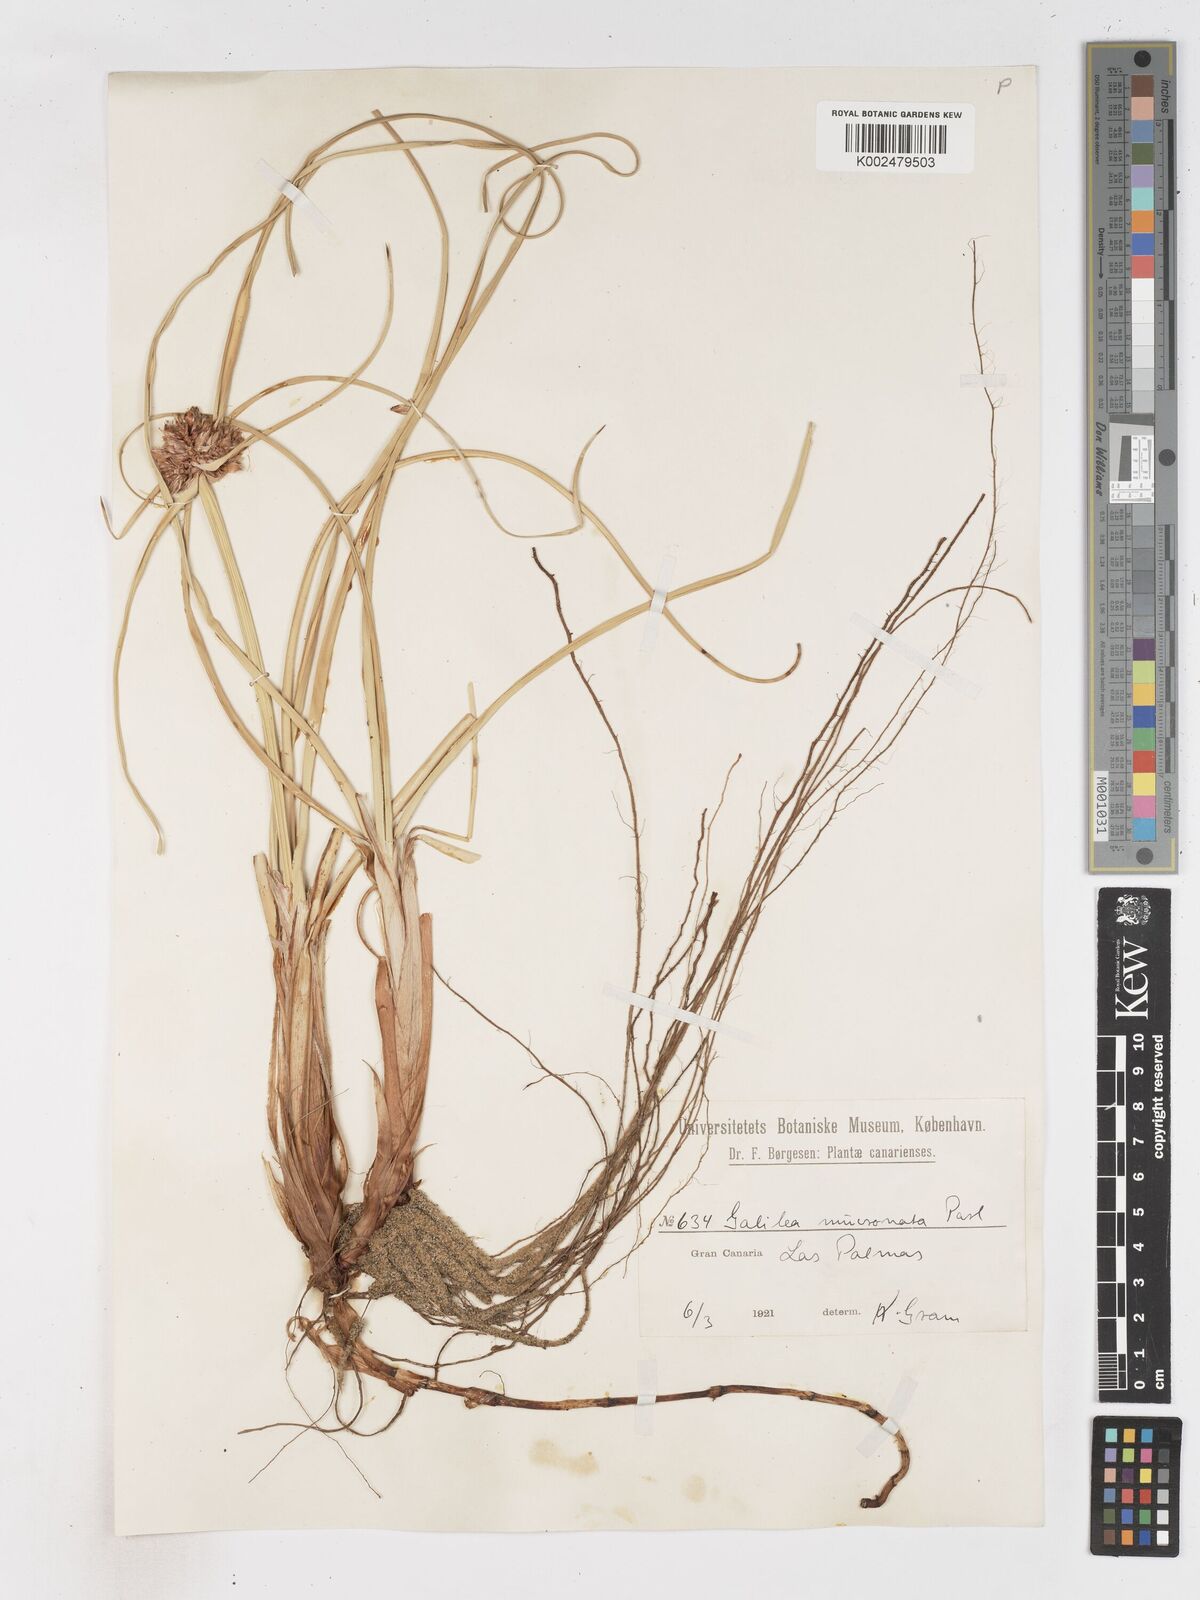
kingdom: Plantae
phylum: Tracheophyta
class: Liliopsida
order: Poales
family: Cyperaceae
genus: Cyperus
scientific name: Cyperus capitatus
